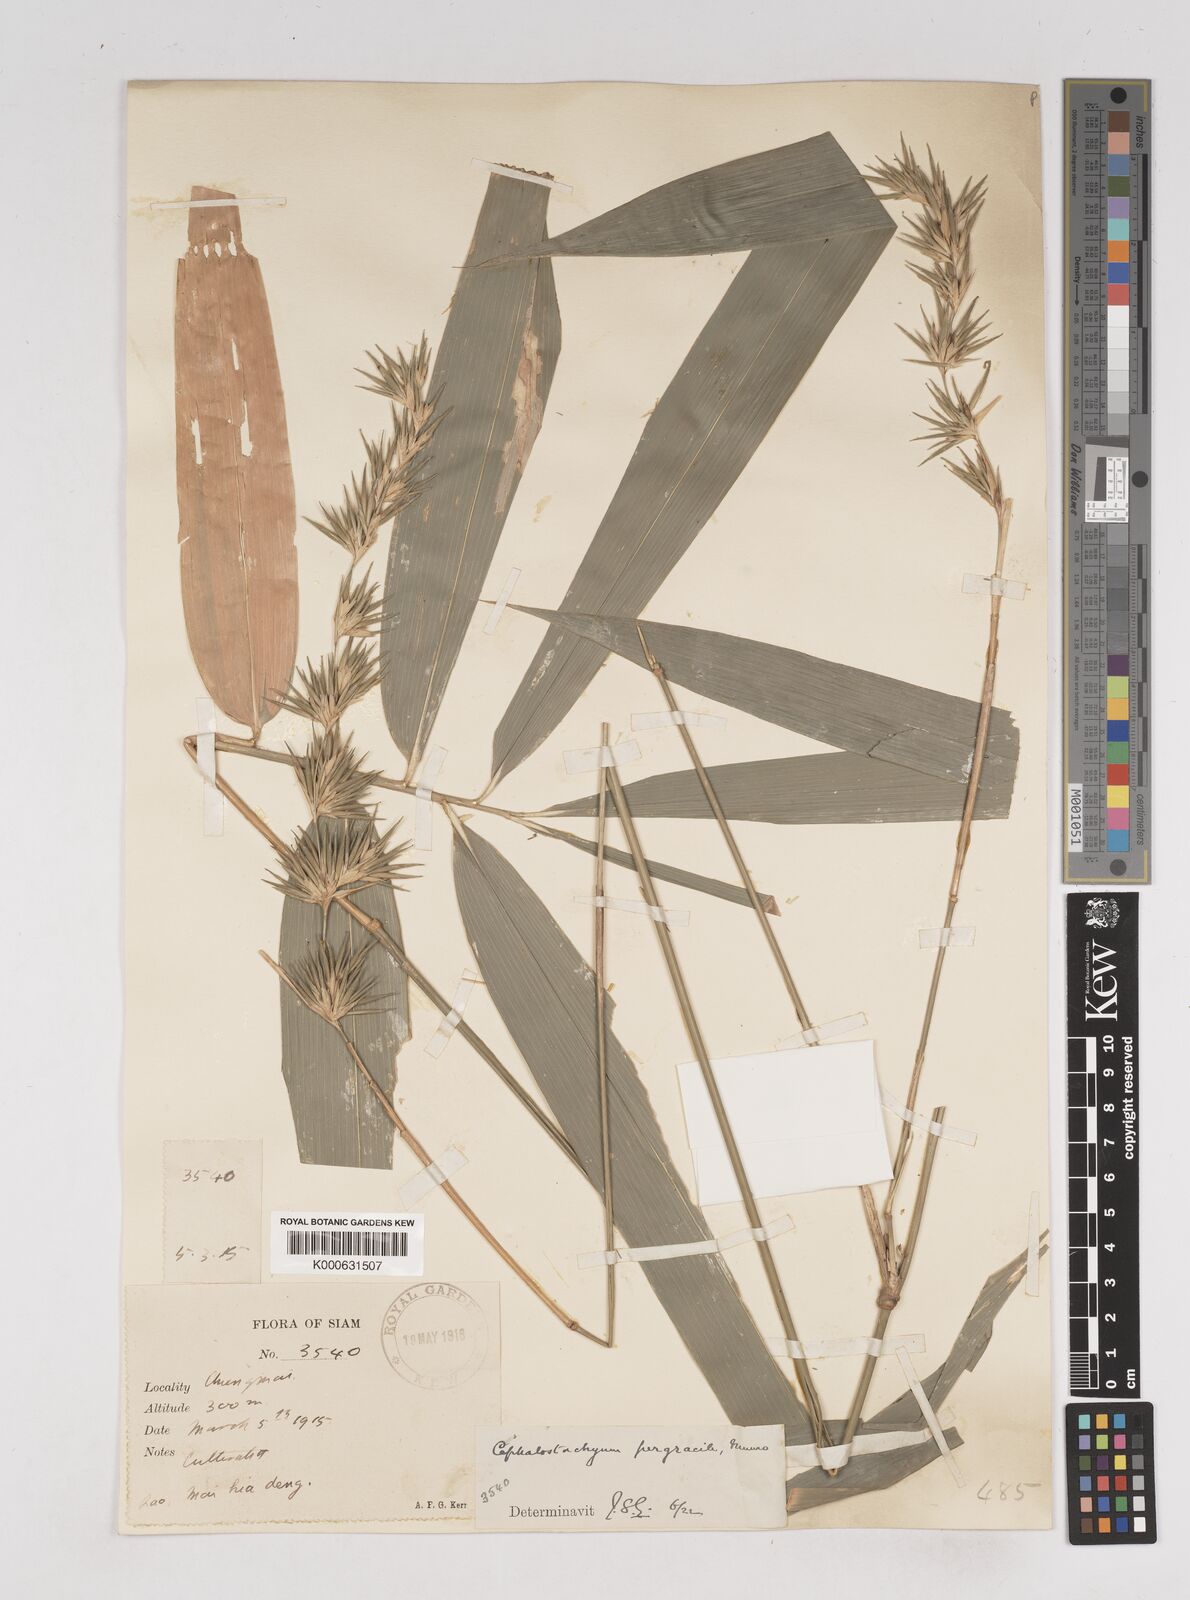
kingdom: Plantae
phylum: Tracheophyta
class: Liliopsida
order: Poales
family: Poaceae
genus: Schizostachyum
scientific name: Schizostachyum pergracile
